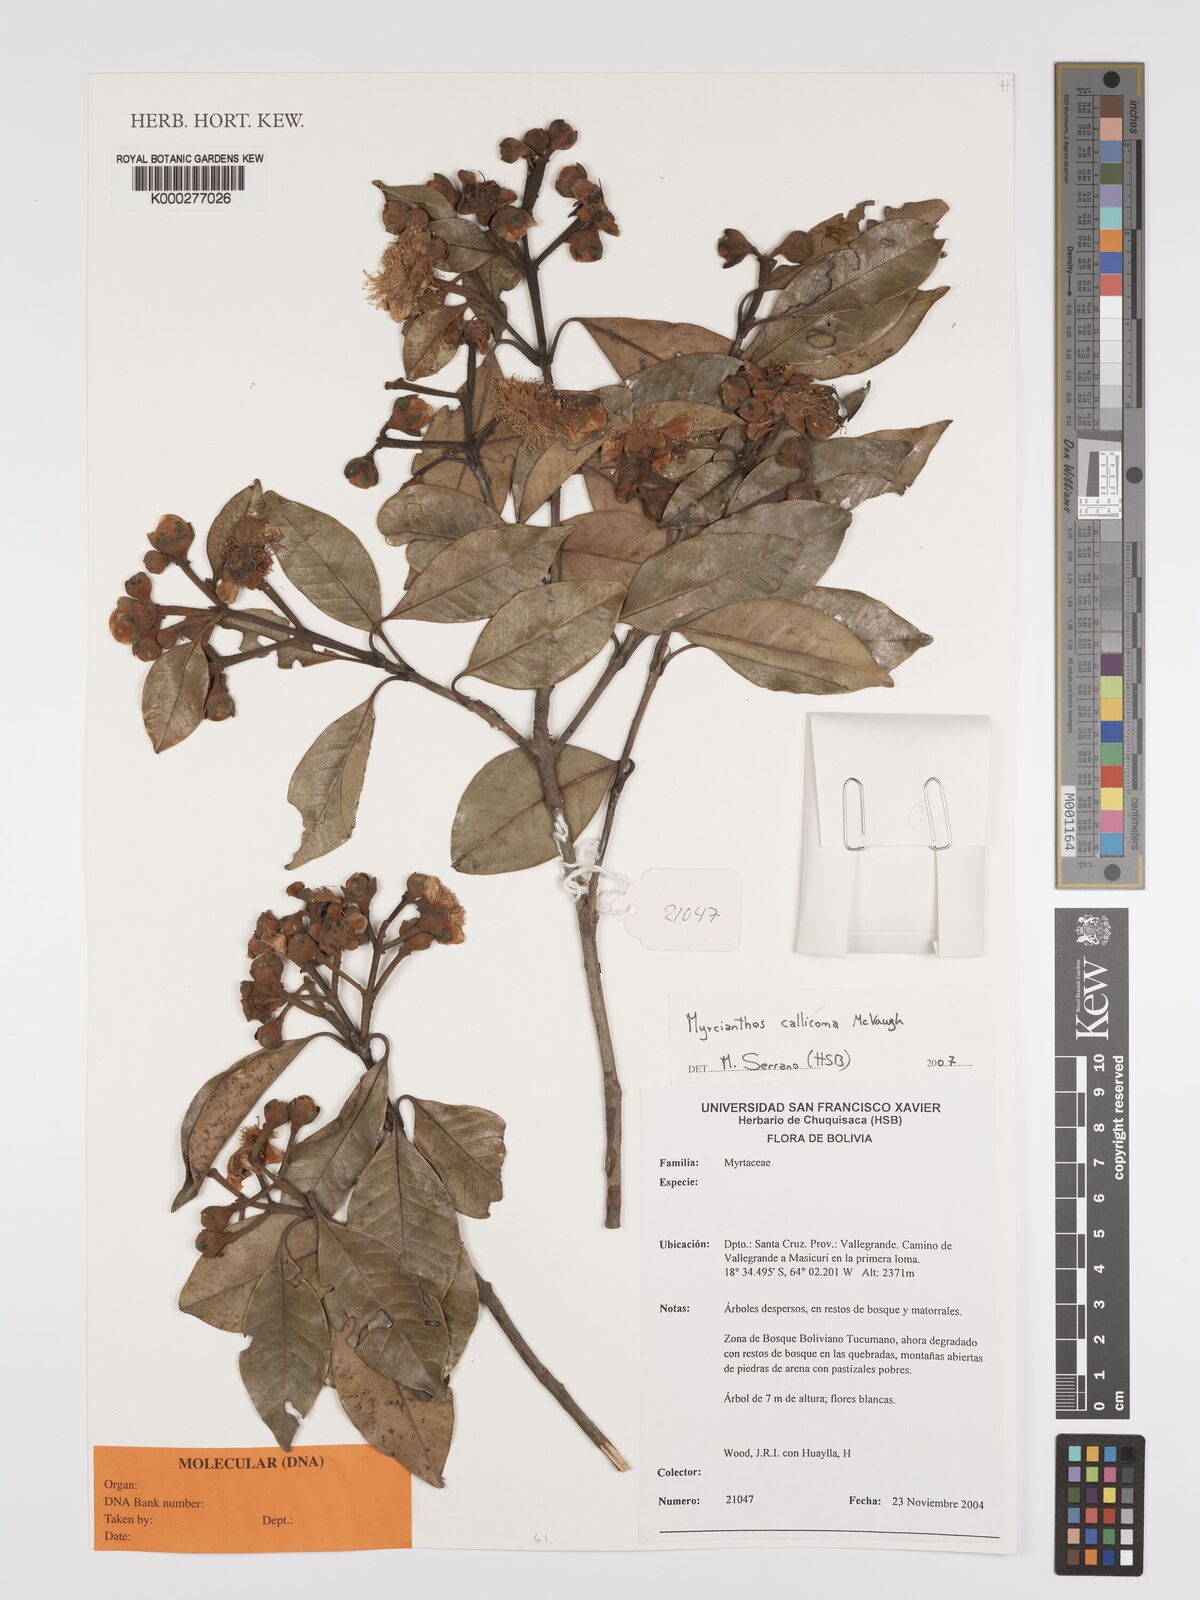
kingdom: Plantae
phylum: Tracheophyta
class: Magnoliopsida
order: Myrtales
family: Myrtaceae
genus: Myrcianthes
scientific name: Myrcianthes callicoma
